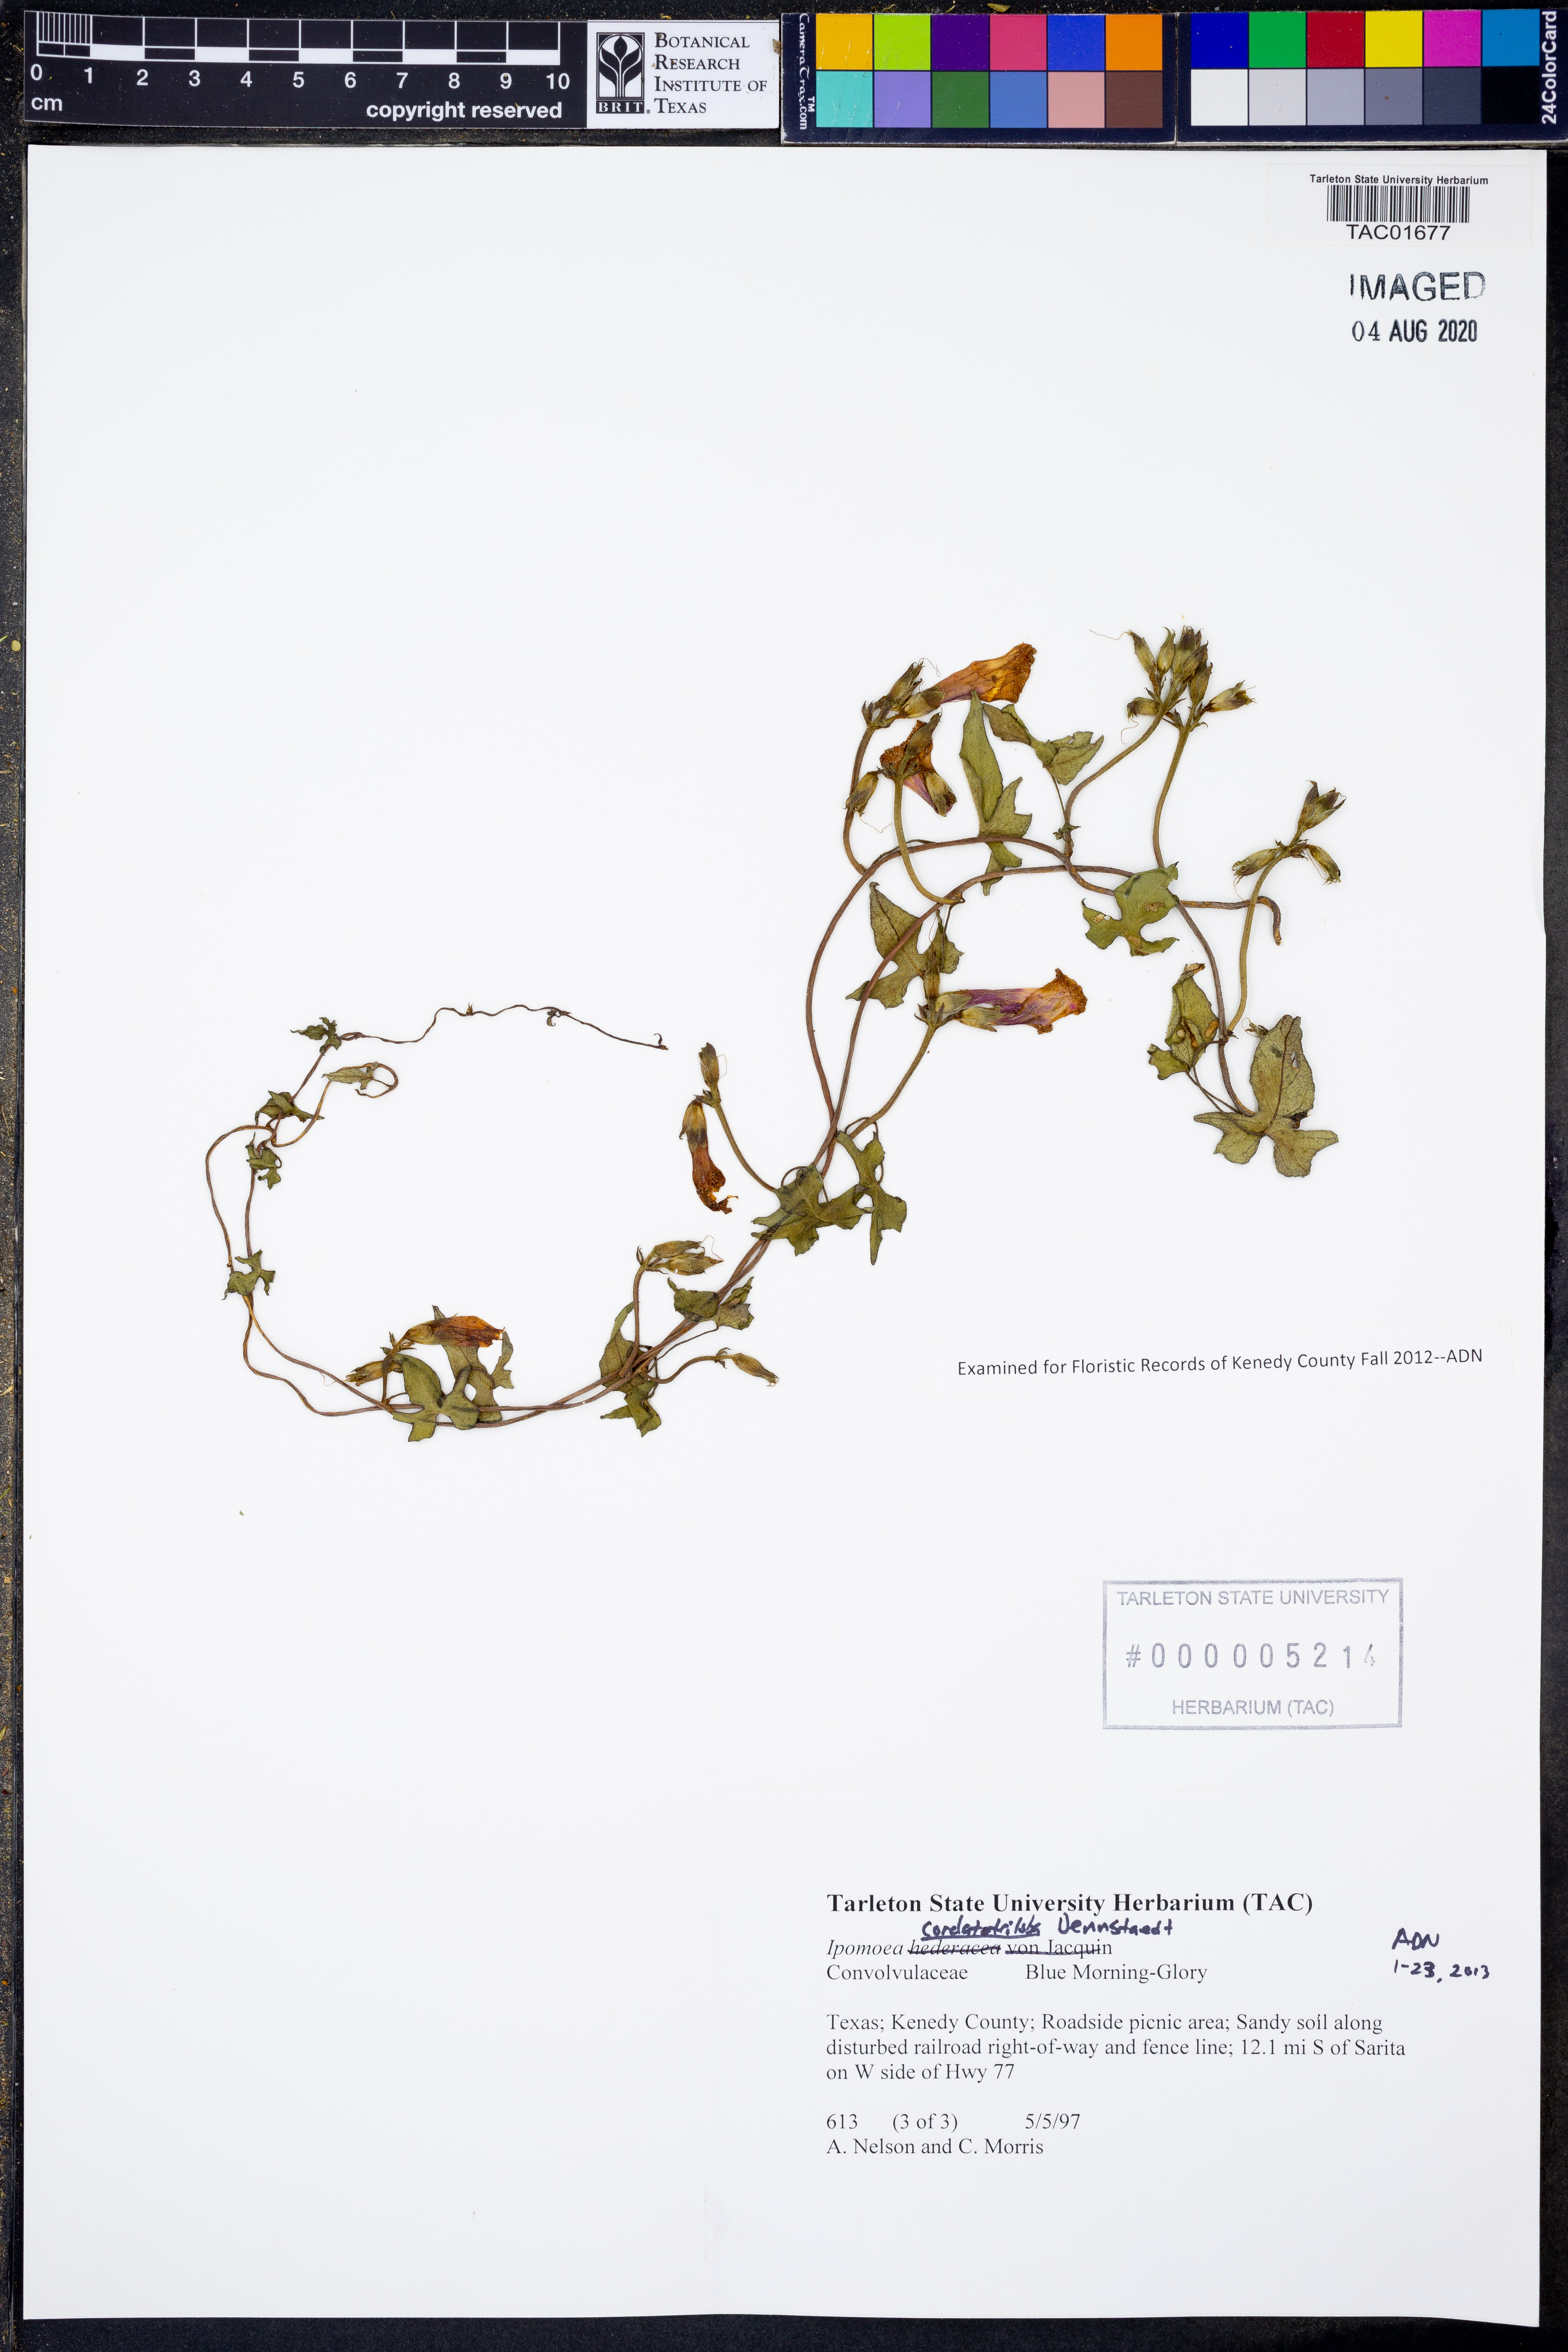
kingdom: Plantae
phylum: Tracheophyta
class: Magnoliopsida
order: Solanales
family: Convolvulaceae
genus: Ipomoea
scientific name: Ipomoea cordatotriloba
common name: Cotton morning glory
